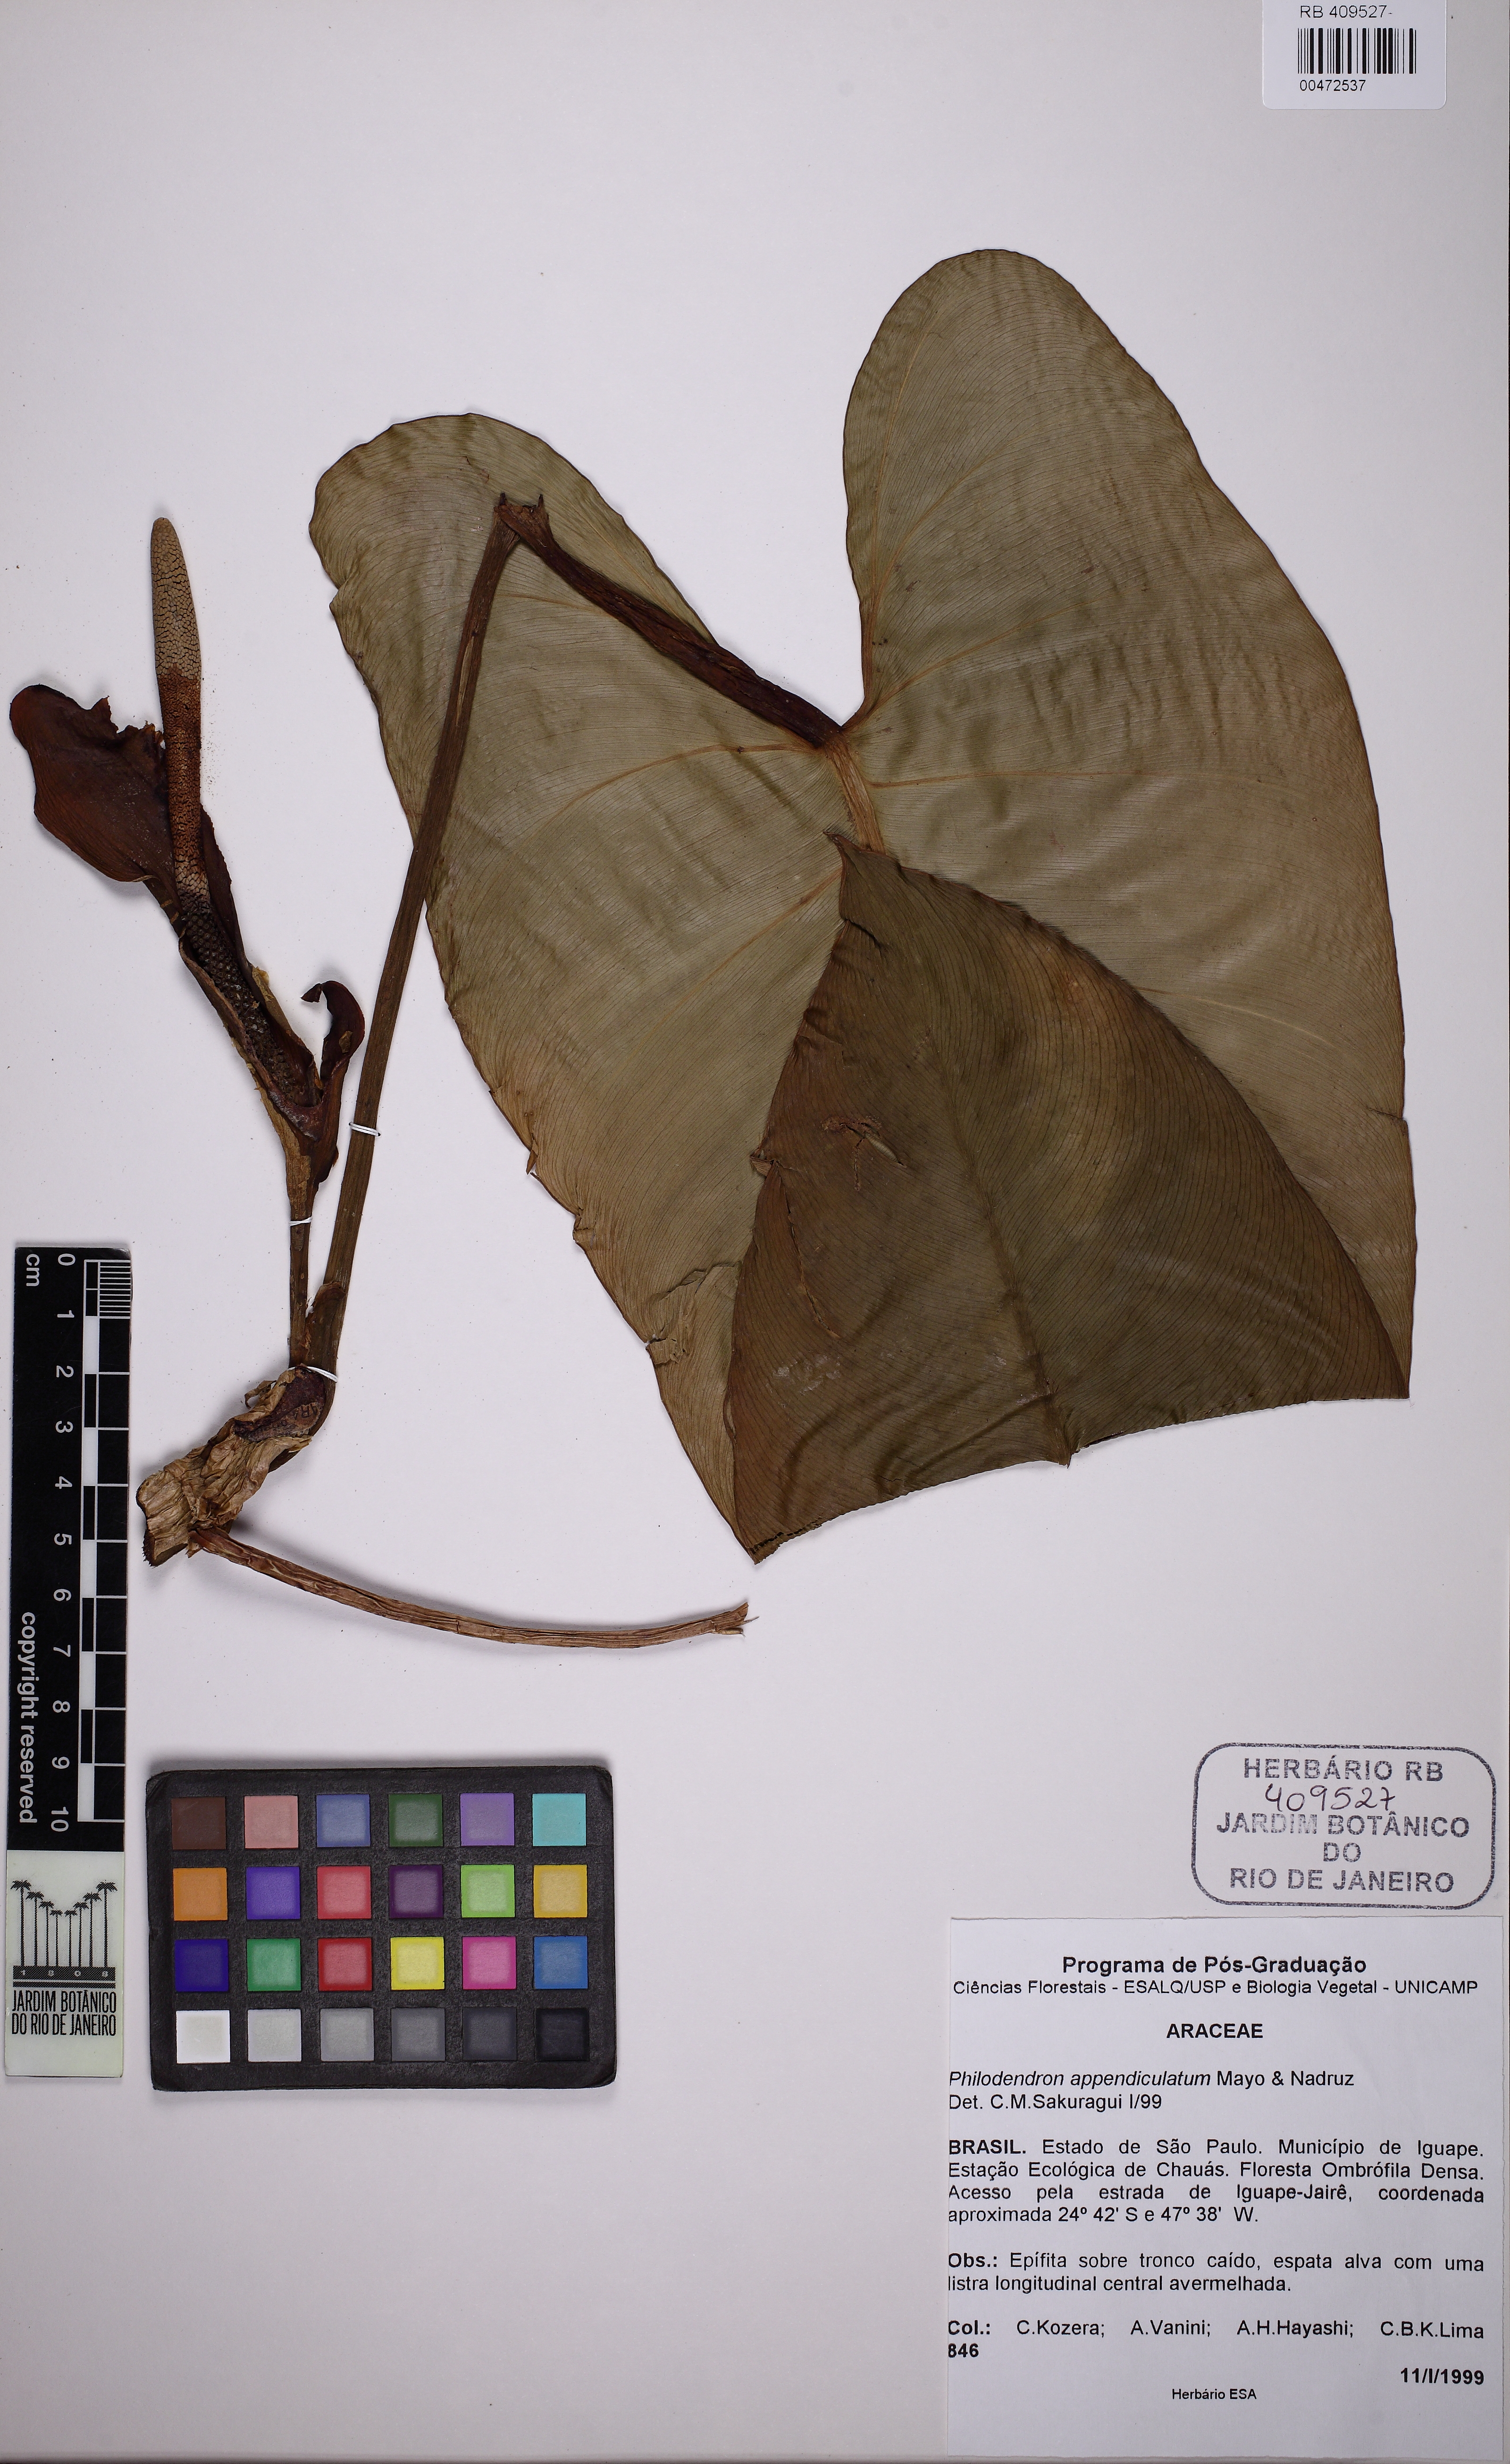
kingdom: Plantae
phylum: Tracheophyta
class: Liliopsida
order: Alismatales
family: Araceae
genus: Philodendron
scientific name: Philodendron appendiculatum
